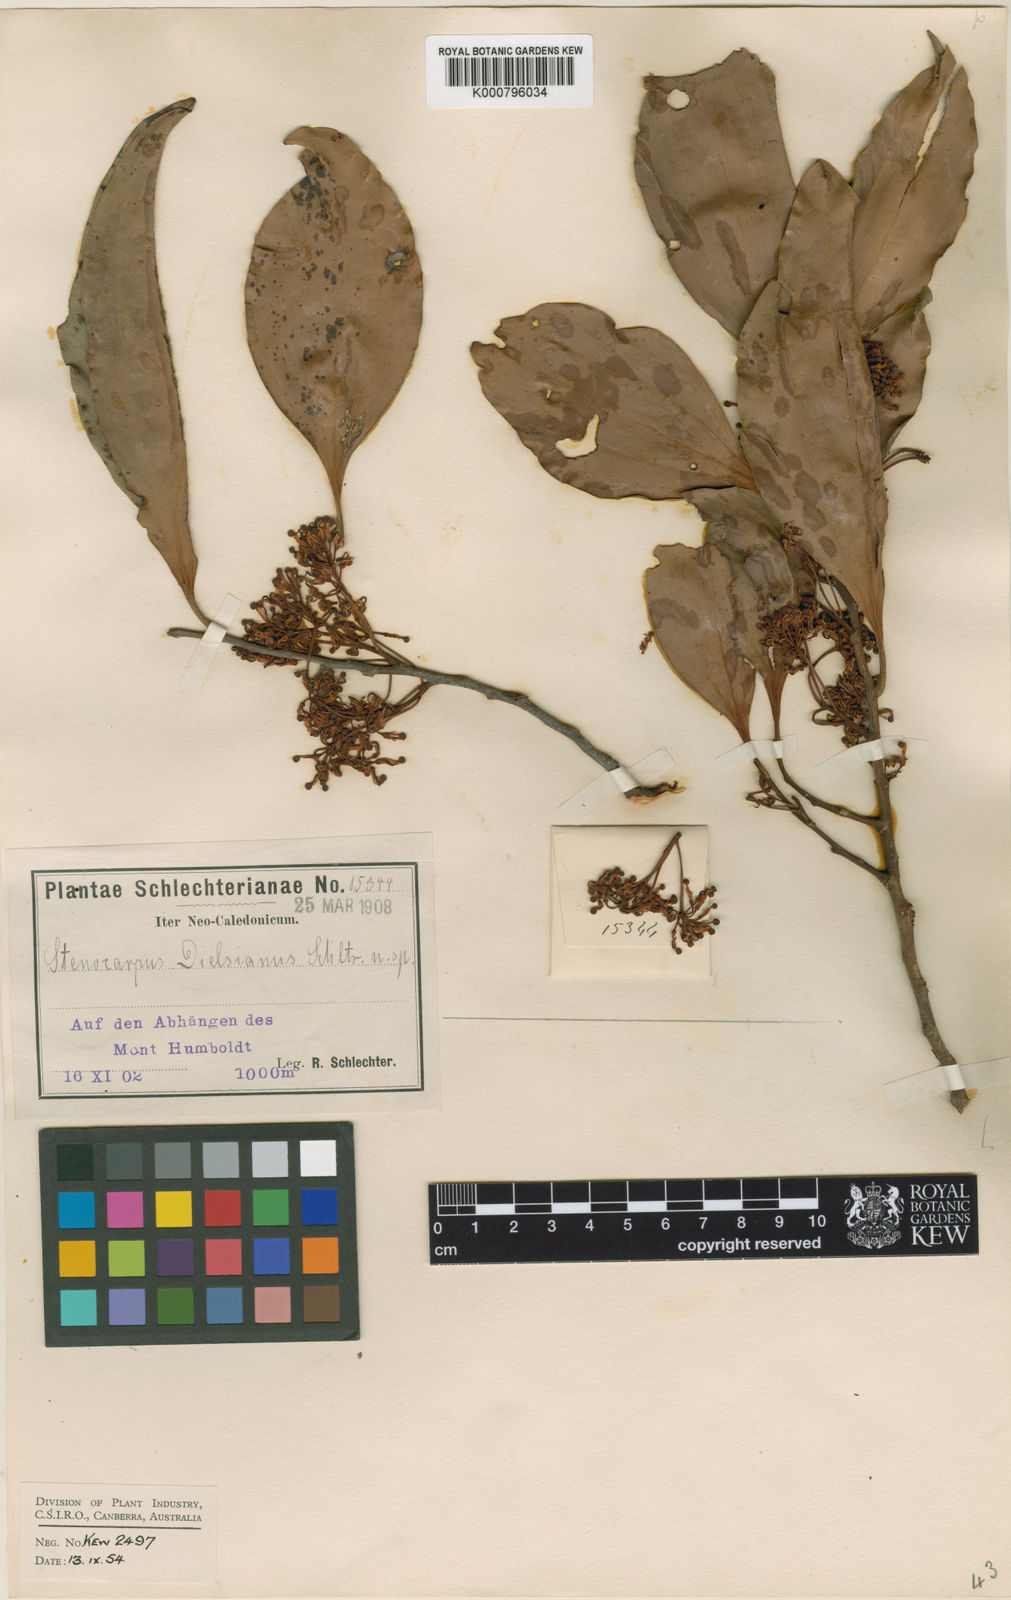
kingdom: Plantae
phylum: Tracheophyta
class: Magnoliopsida
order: Proteales
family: Proteaceae
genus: Stenocarpus
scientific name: Stenocarpus trinervis
